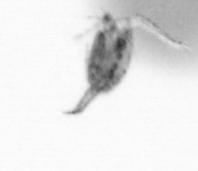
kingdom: Animalia
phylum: Arthropoda
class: Copepoda
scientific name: Copepoda
